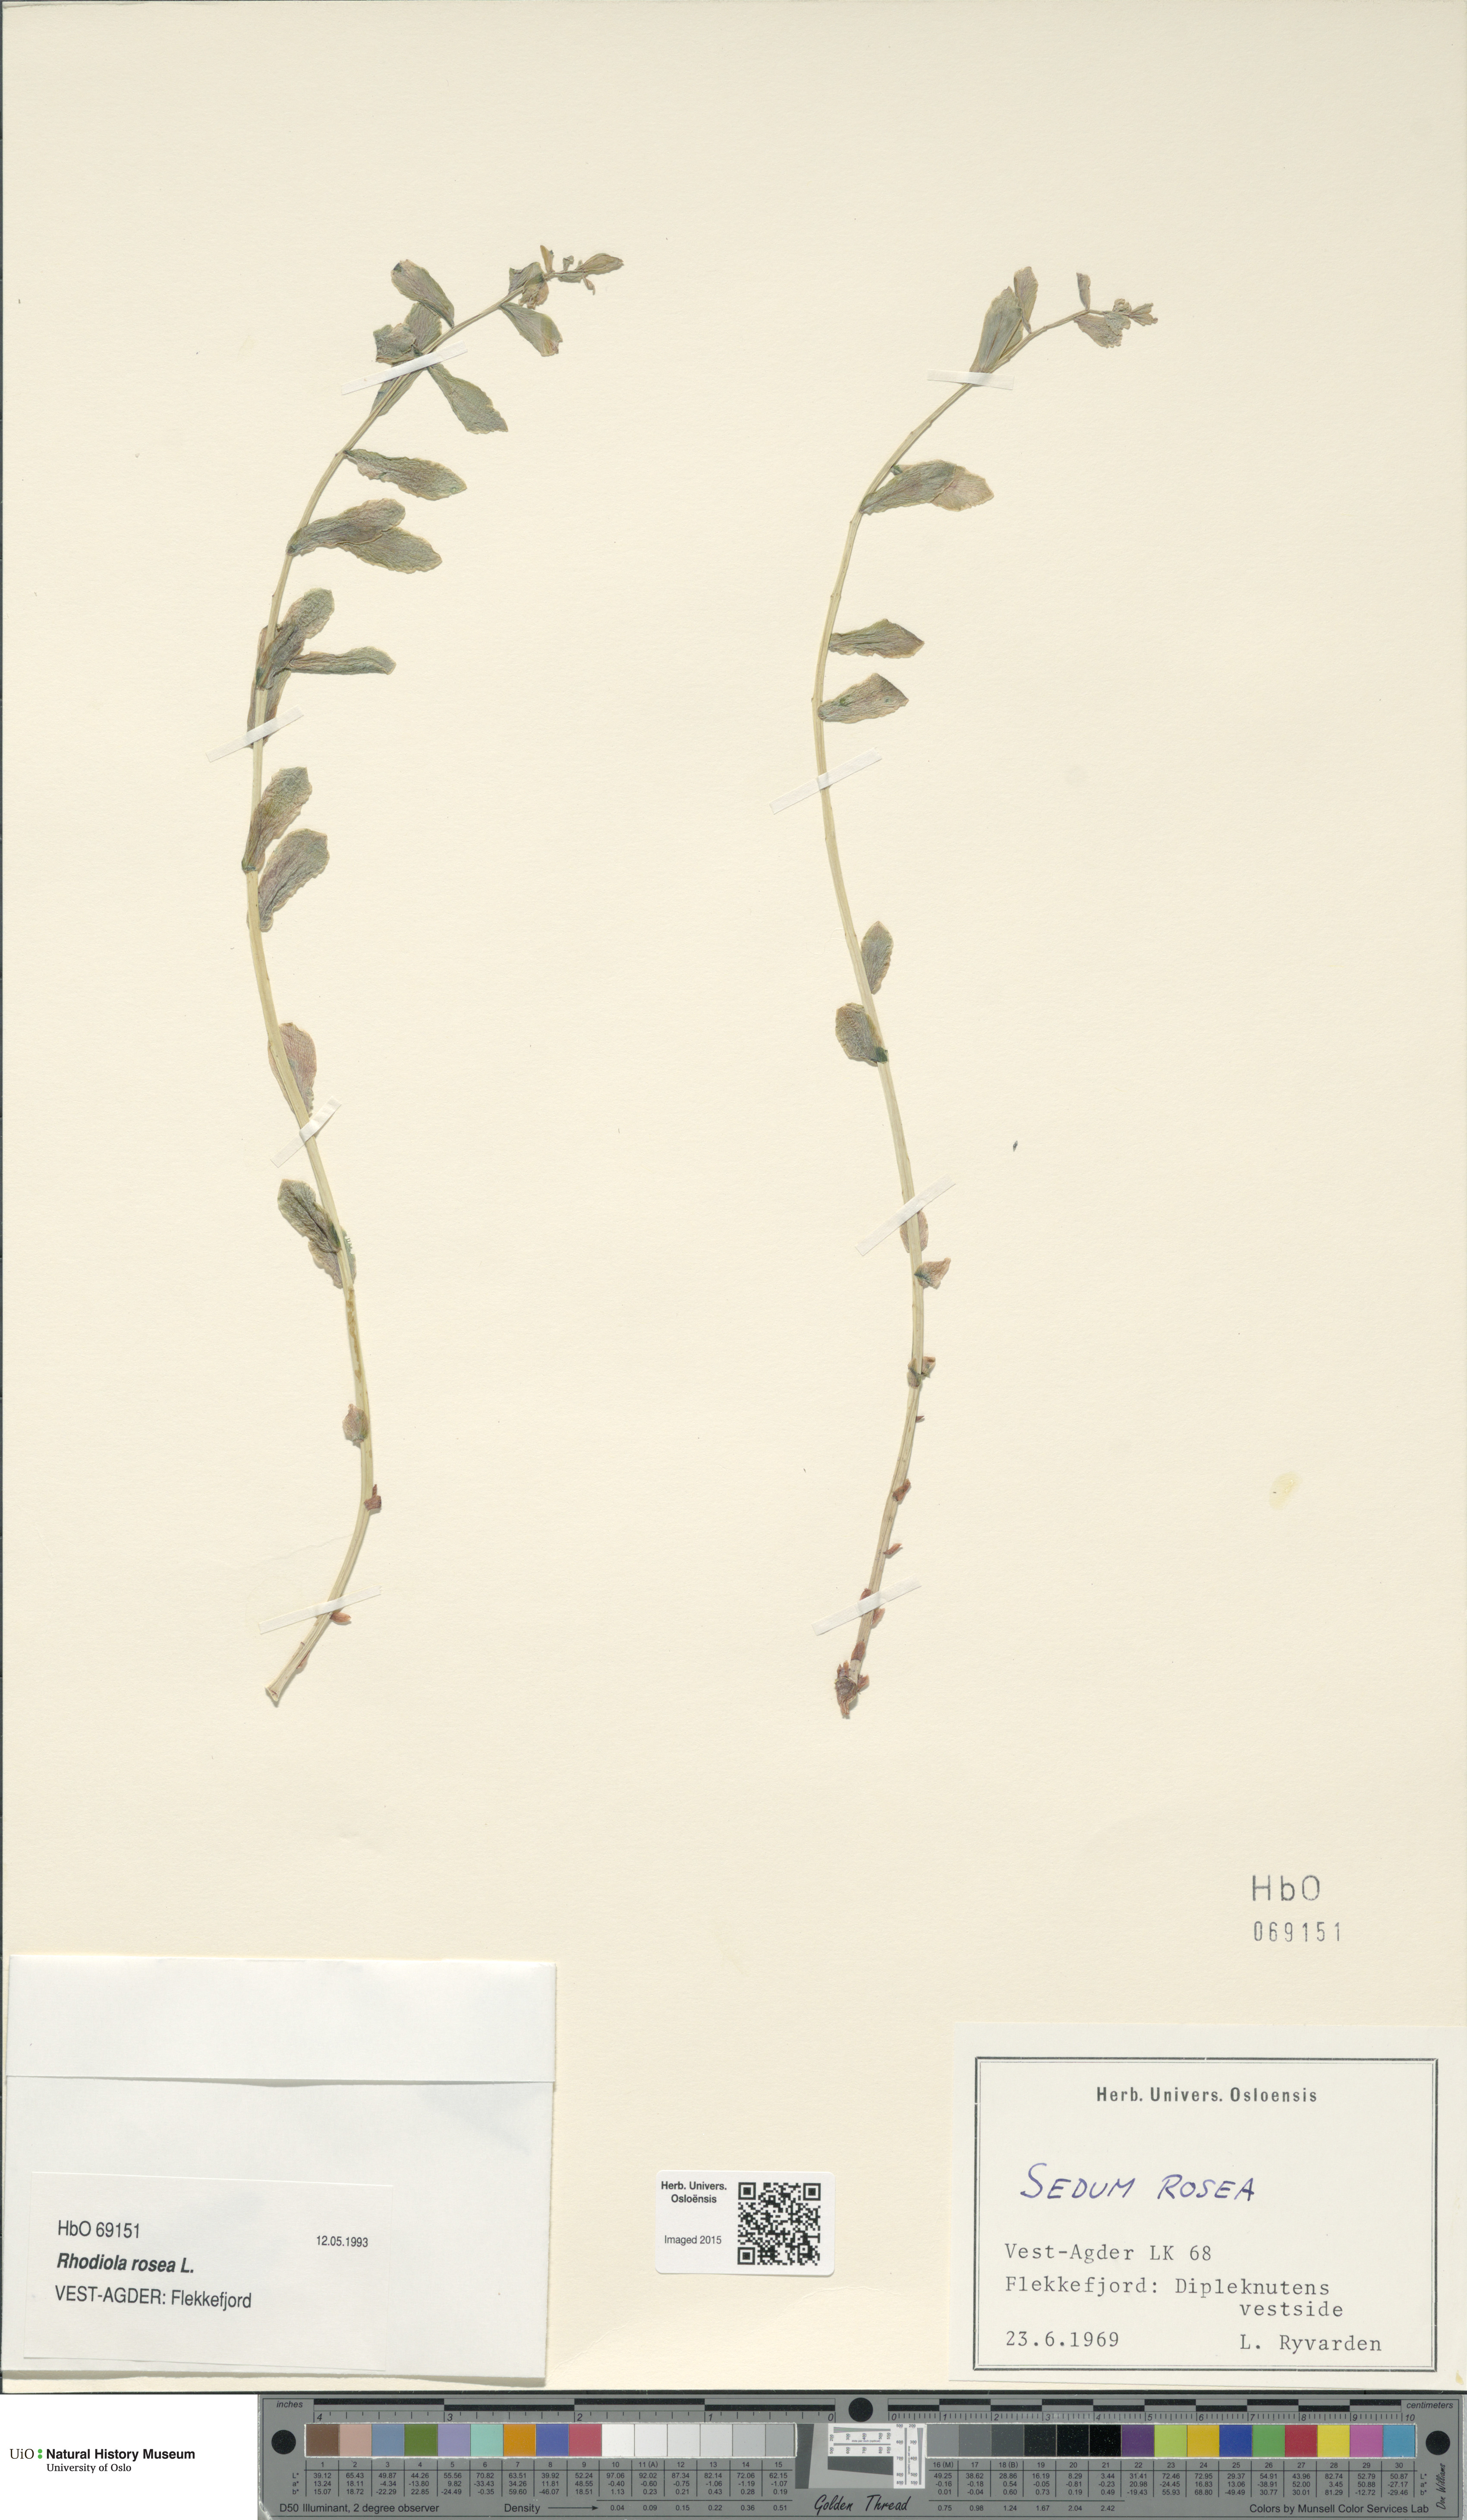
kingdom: Plantae
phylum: Tracheophyta
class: Magnoliopsida
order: Saxifragales
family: Crassulaceae
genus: Rhodiola
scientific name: Rhodiola rosea
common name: Roseroot
